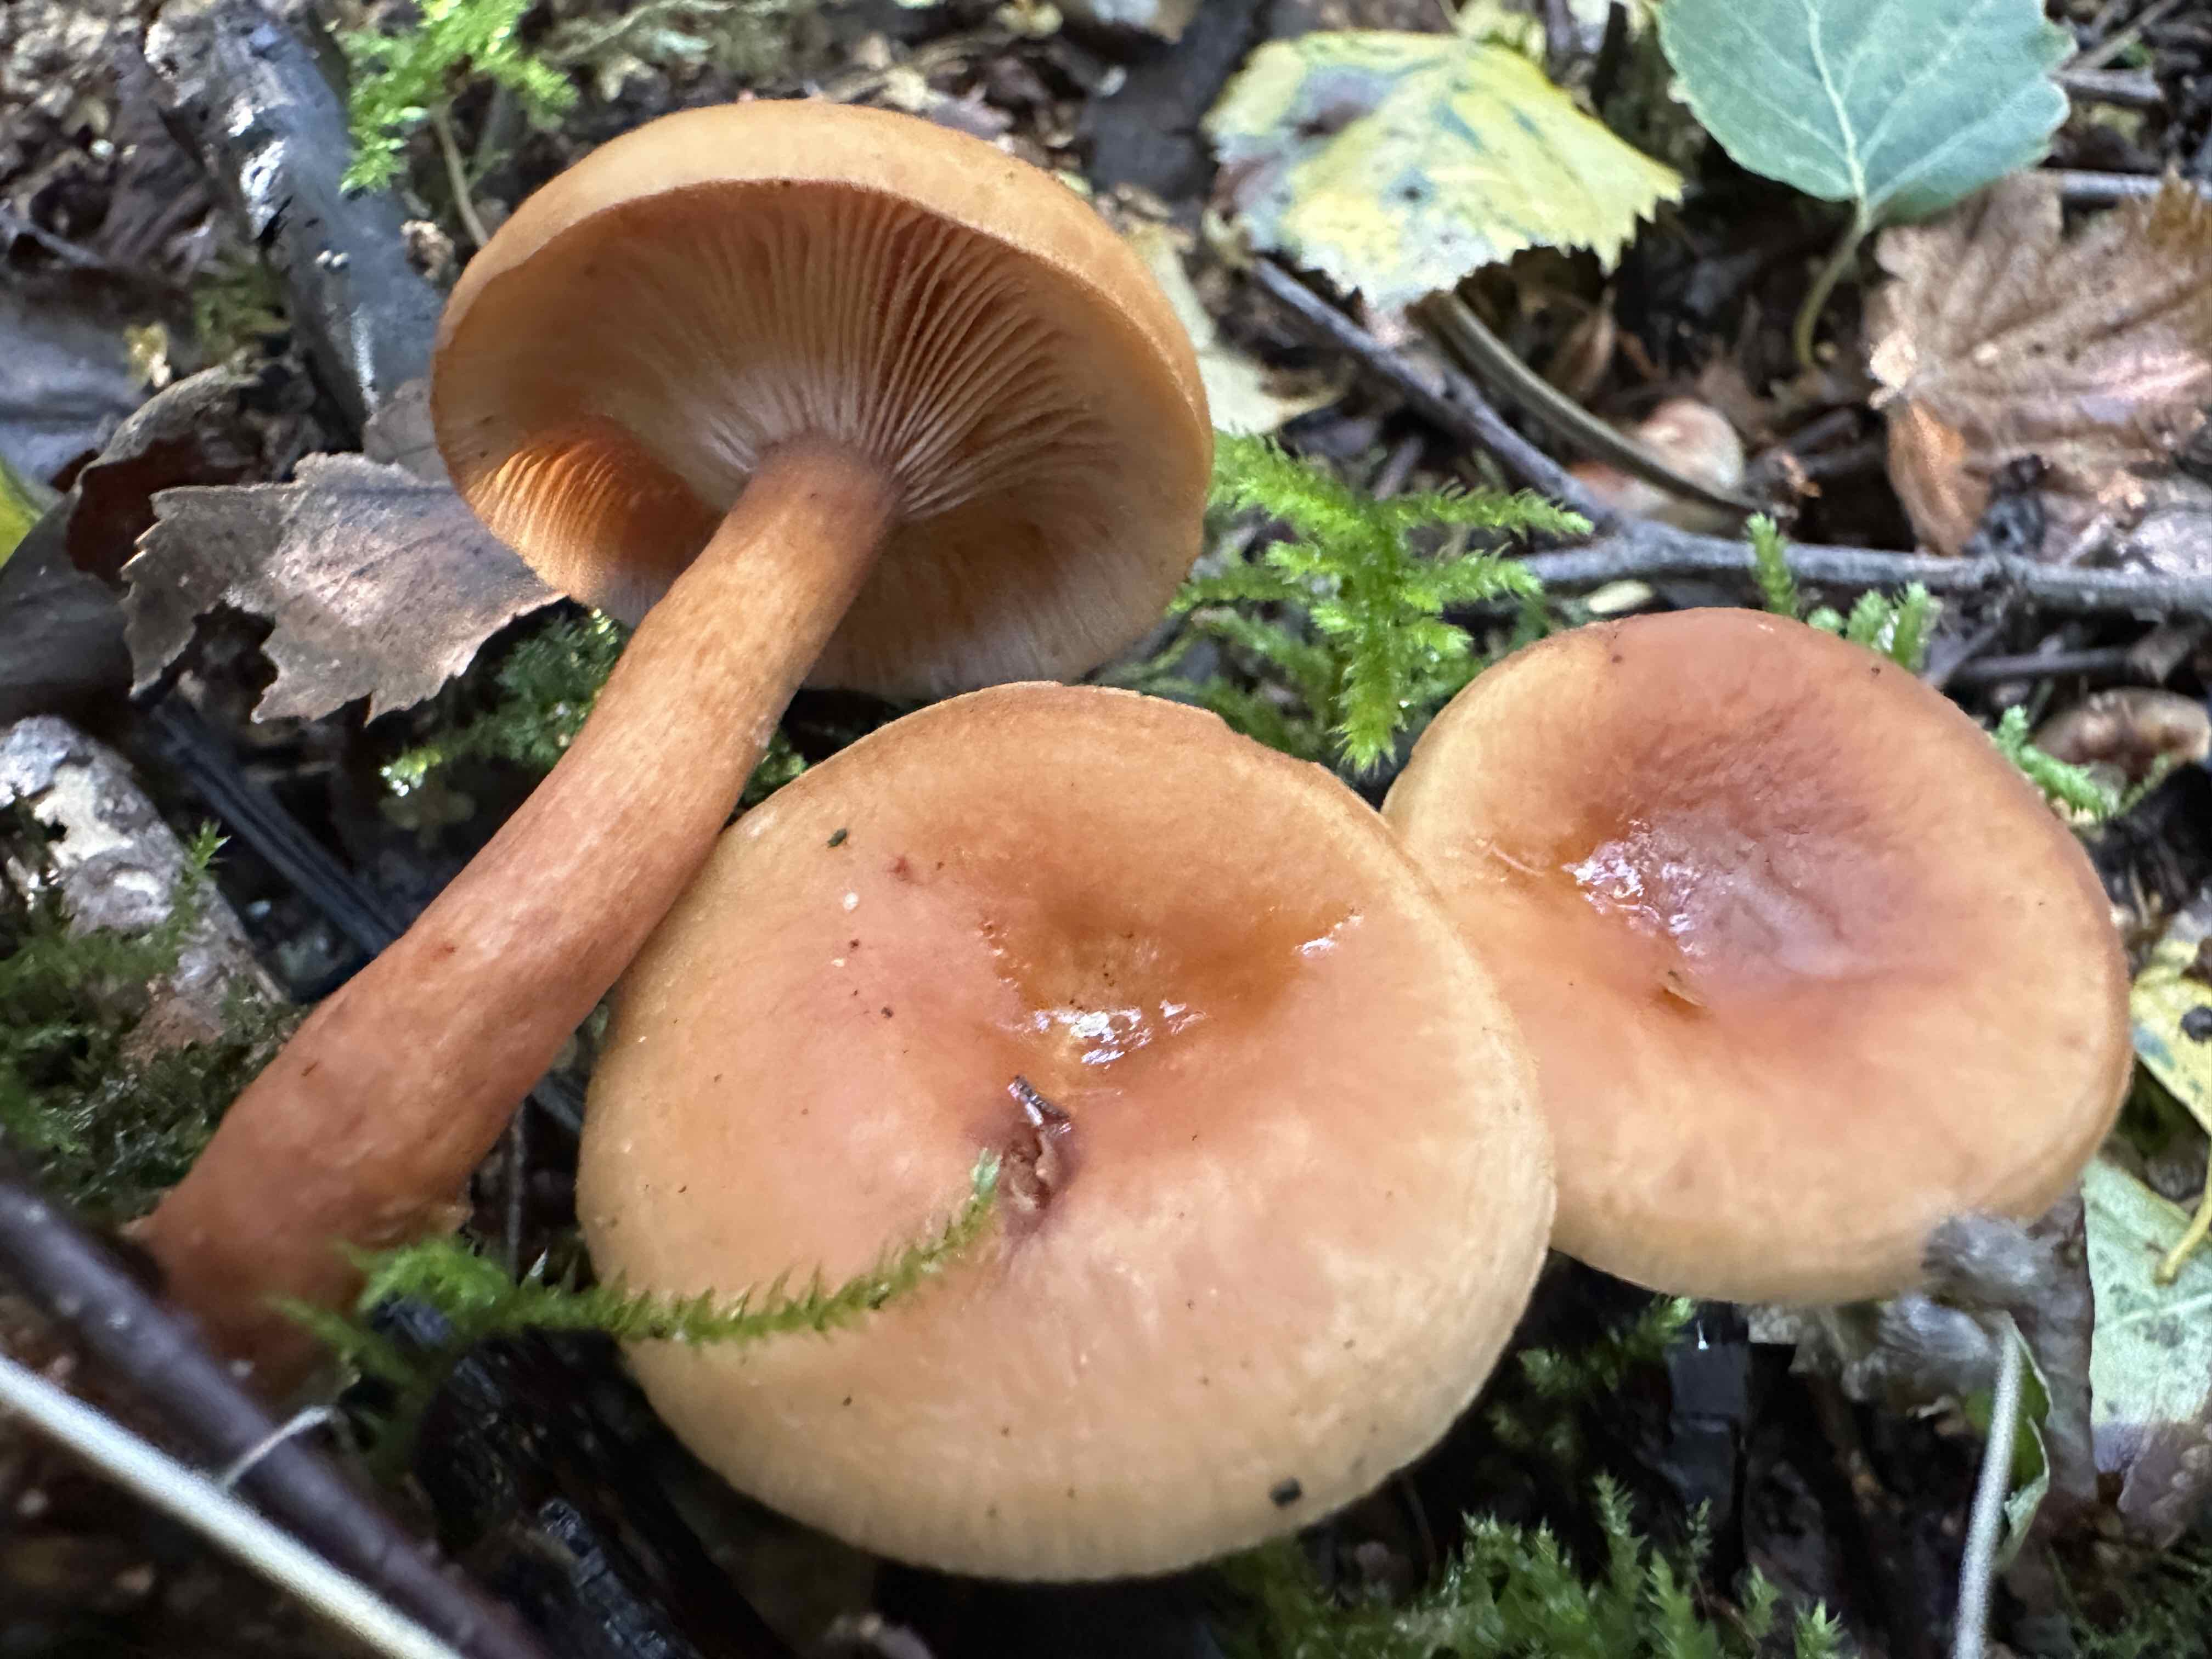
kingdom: Fungi
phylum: Basidiomycota
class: Agaricomycetes
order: Russulales
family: Russulaceae
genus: Lactarius
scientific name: Lactarius tabidus
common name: rynket mælkehat
